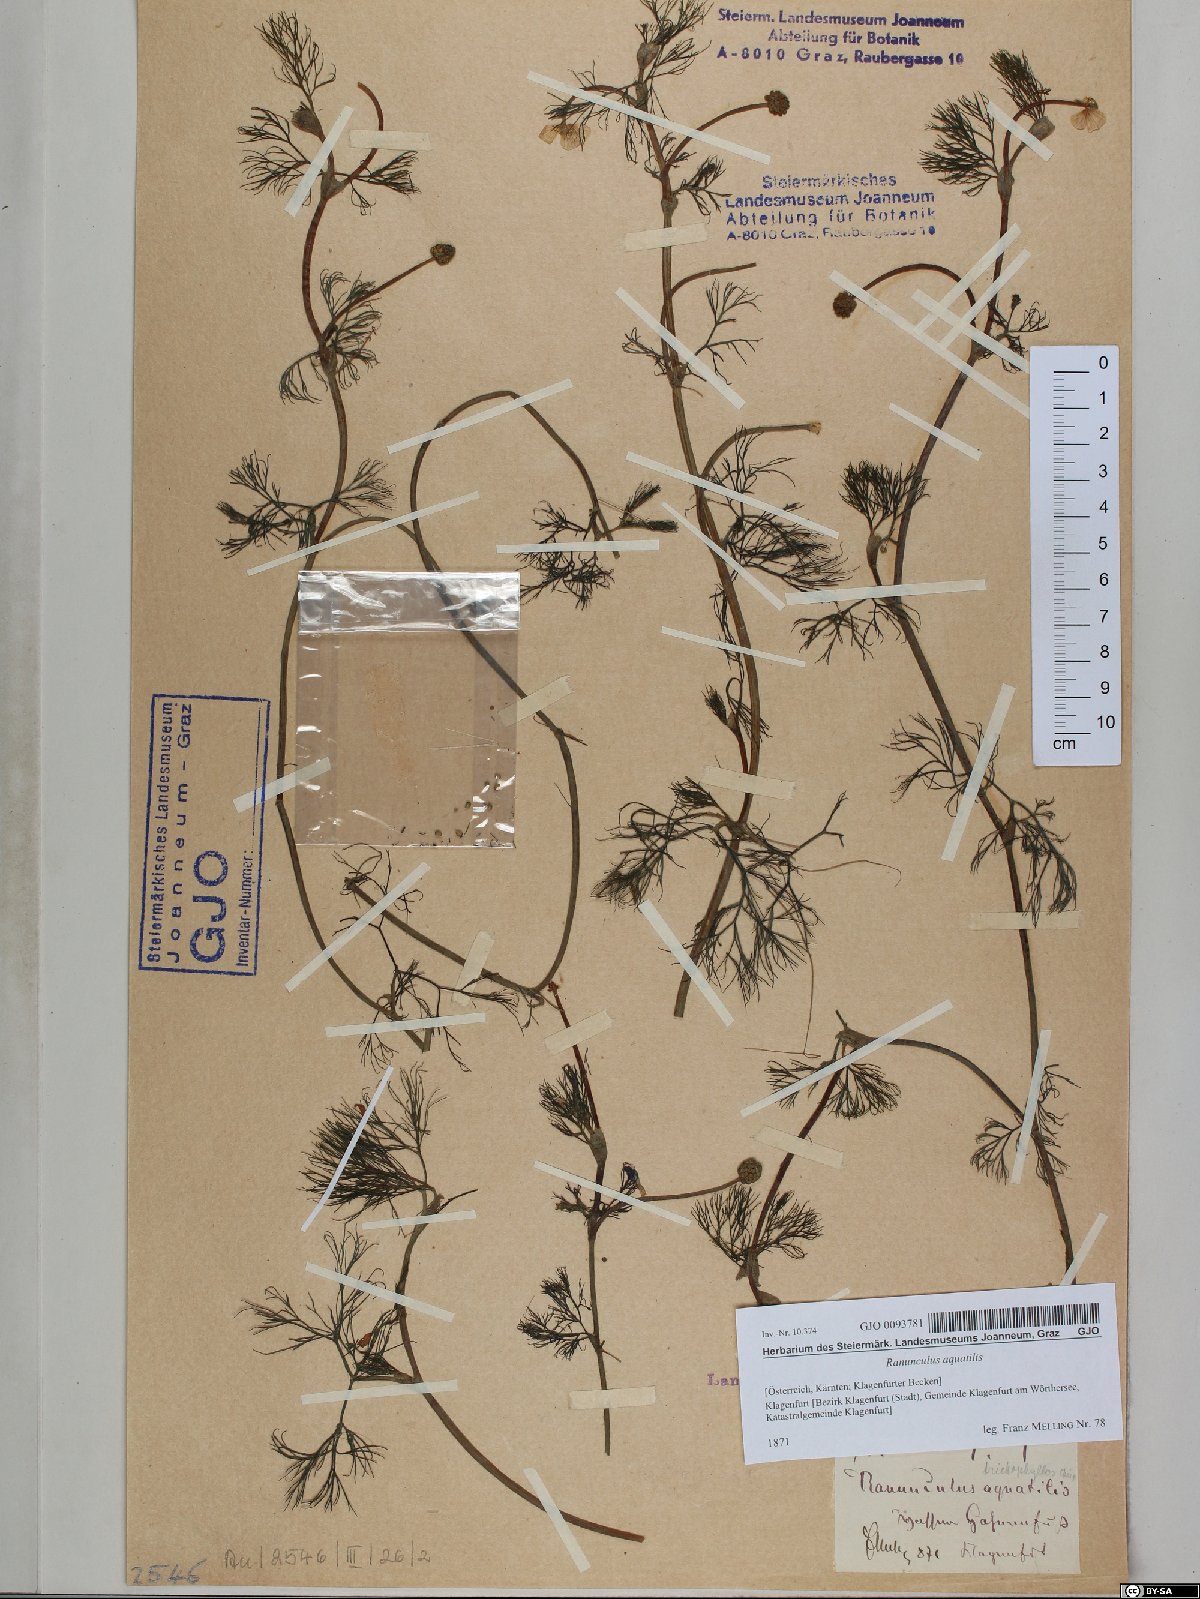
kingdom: Plantae
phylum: Tracheophyta
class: Magnoliopsida
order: Ranunculales
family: Ranunculaceae
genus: Ranunculus
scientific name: Ranunculus aquatilis
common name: Common water-crowfoot
